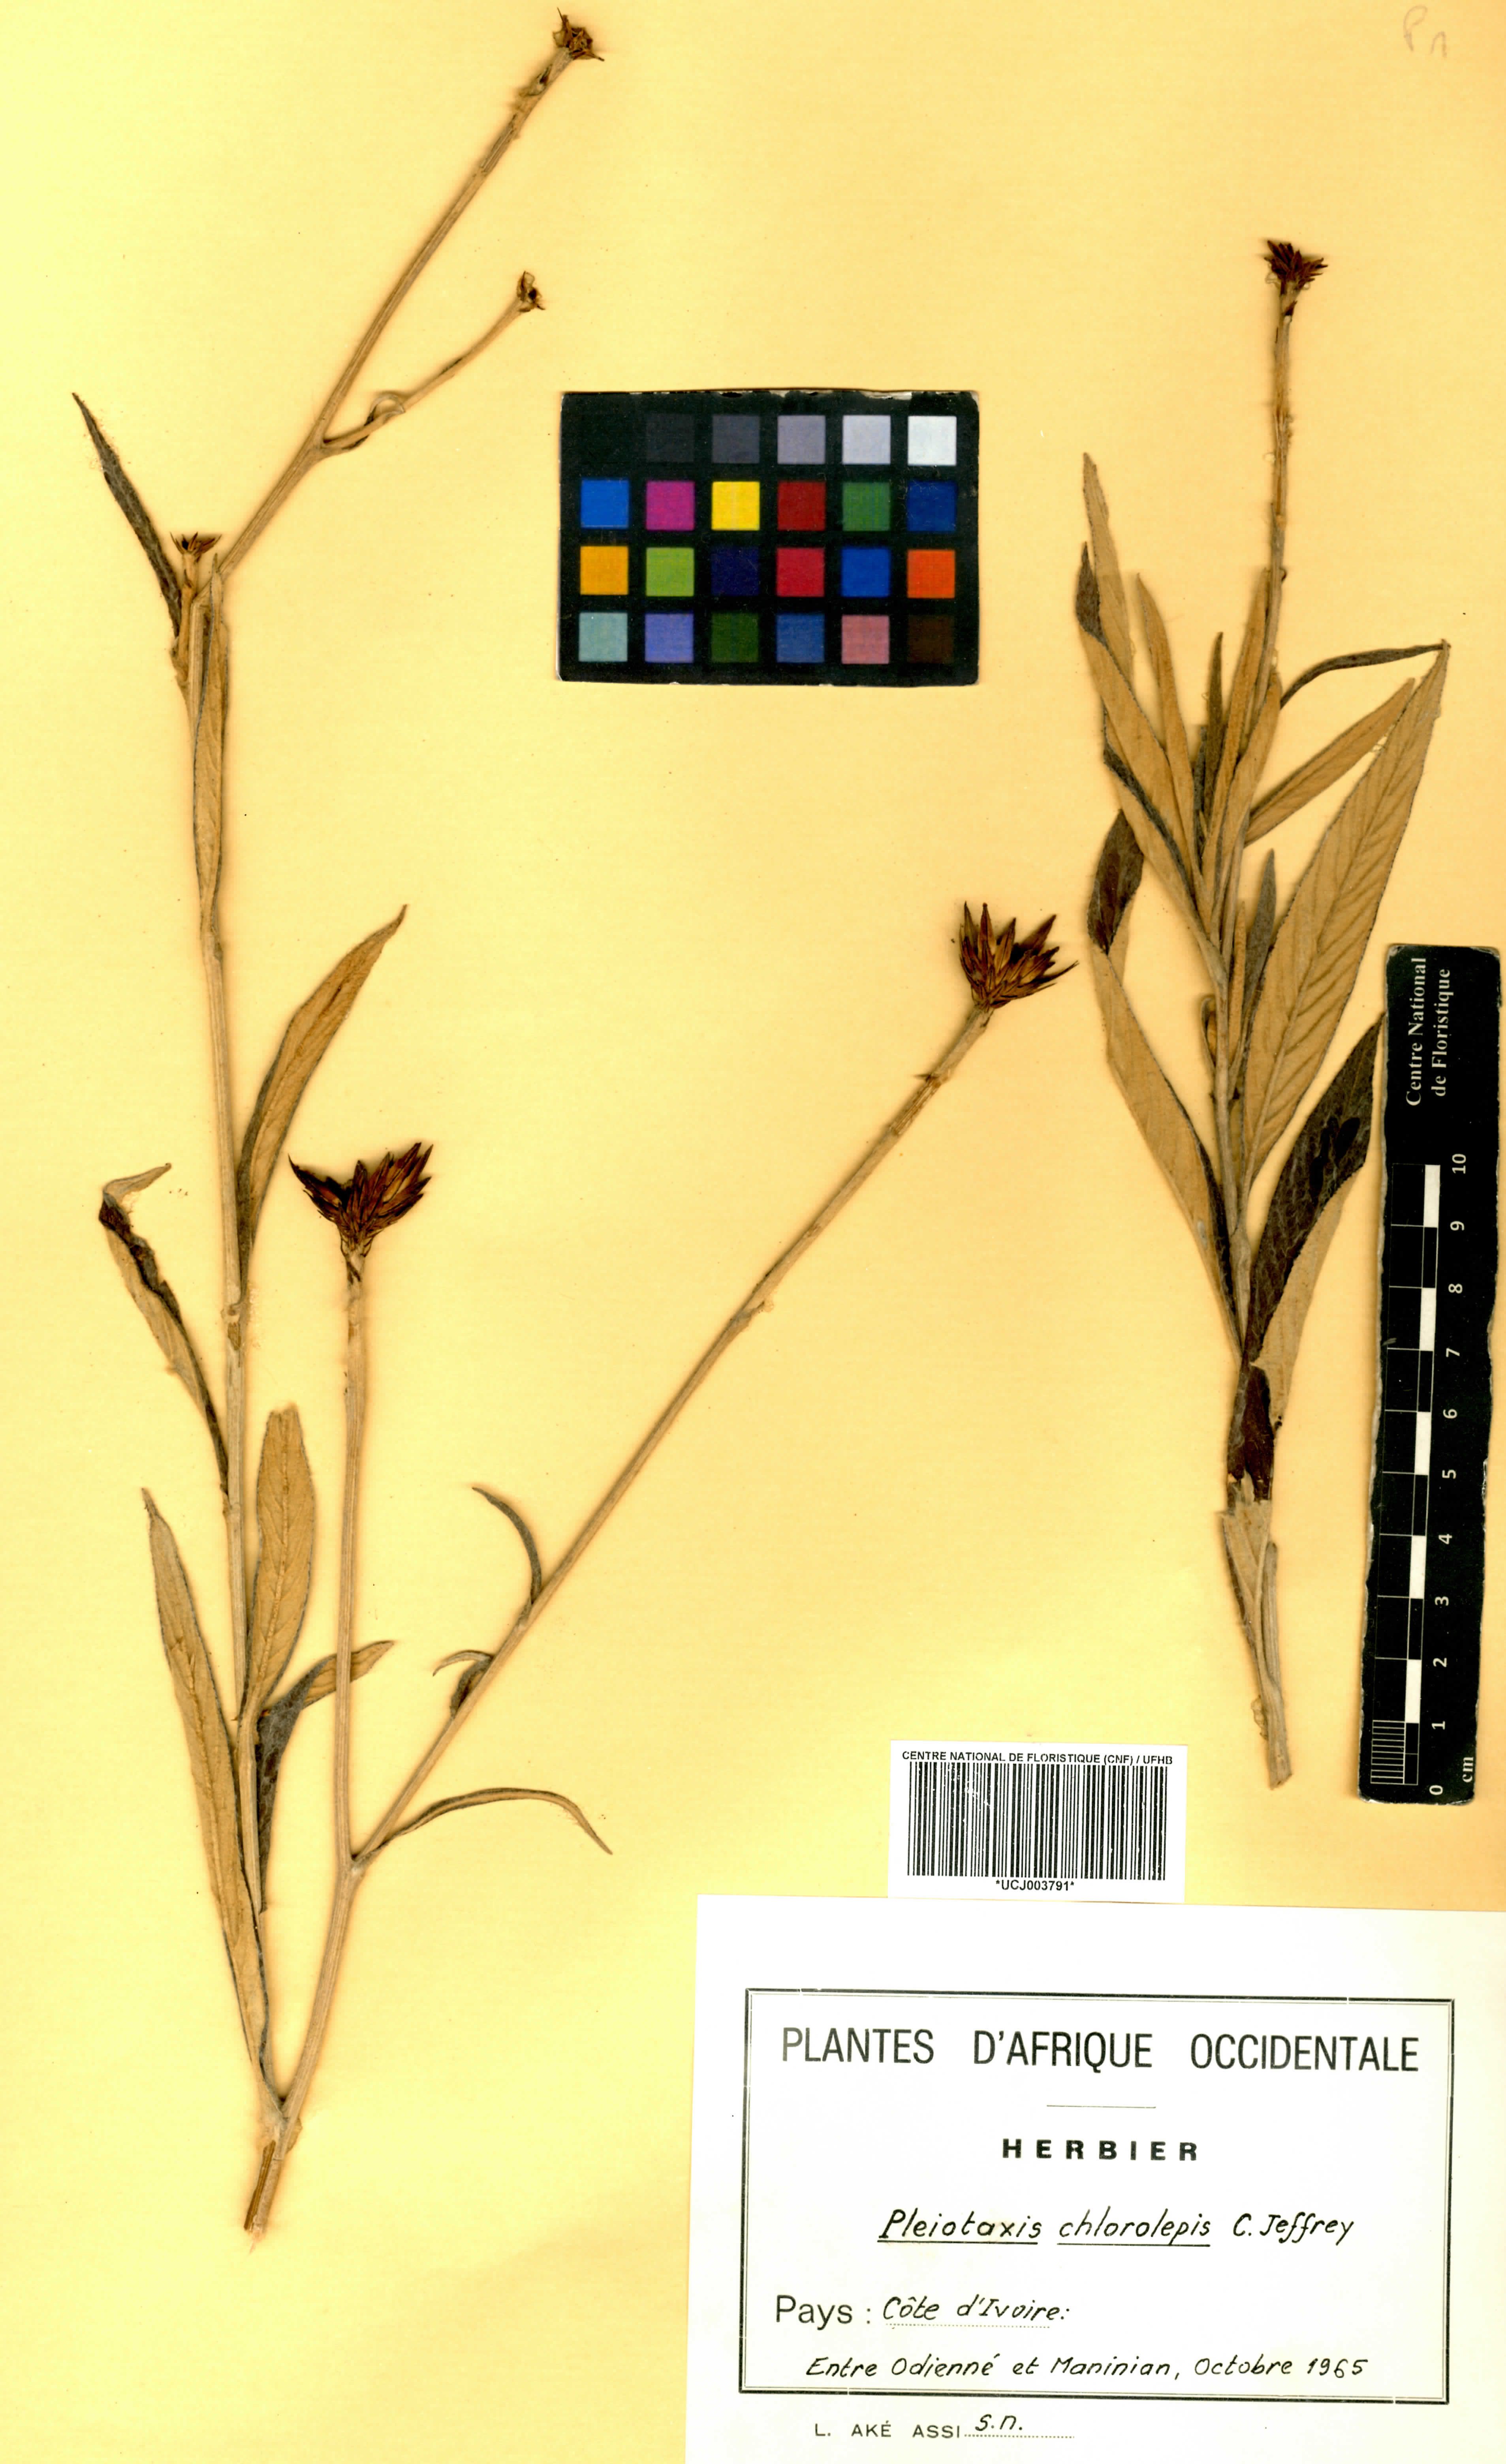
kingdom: Plantae
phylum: Tracheophyta
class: Magnoliopsida
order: Asterales
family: Asteraceae
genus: Pleiotaxis
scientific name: Pleiotaxis chlorolepis
